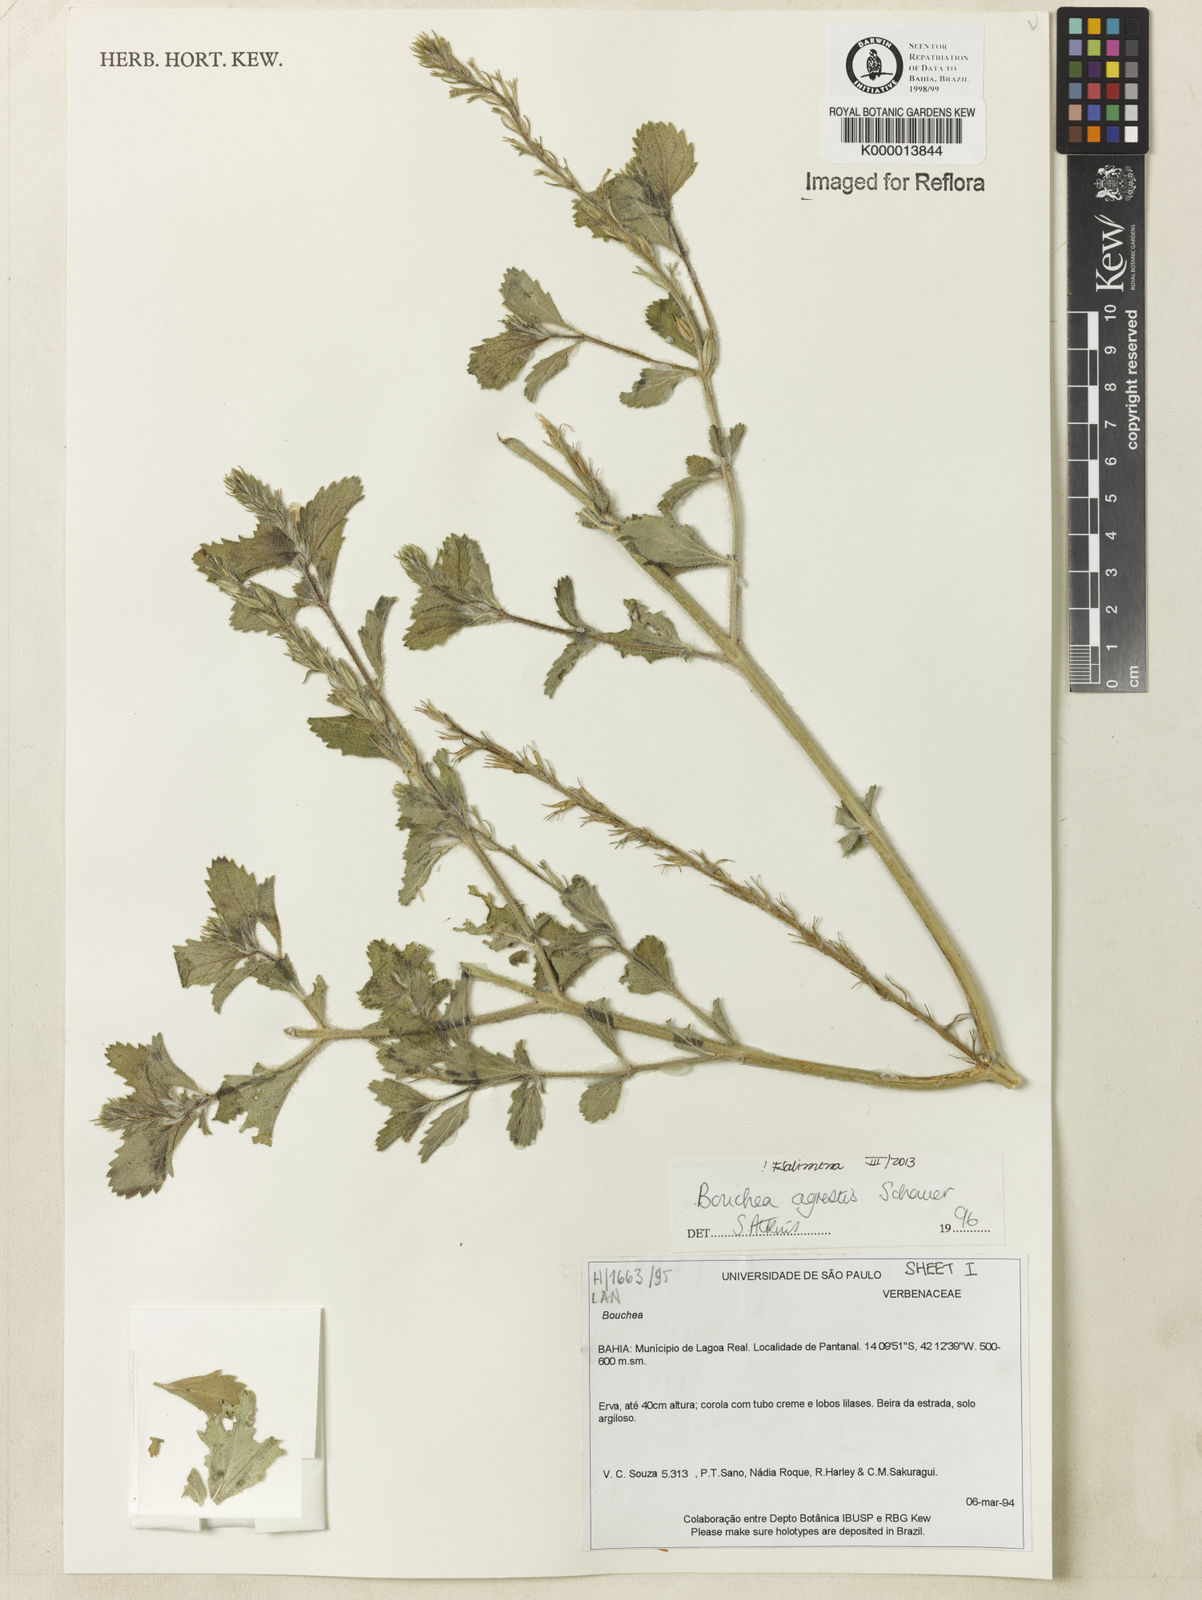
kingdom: Plantae
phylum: Tracheophyta
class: Magnoliopsida
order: Lamiales
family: Verbenaceae
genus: Bouchea
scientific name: Bouchea agrestis
